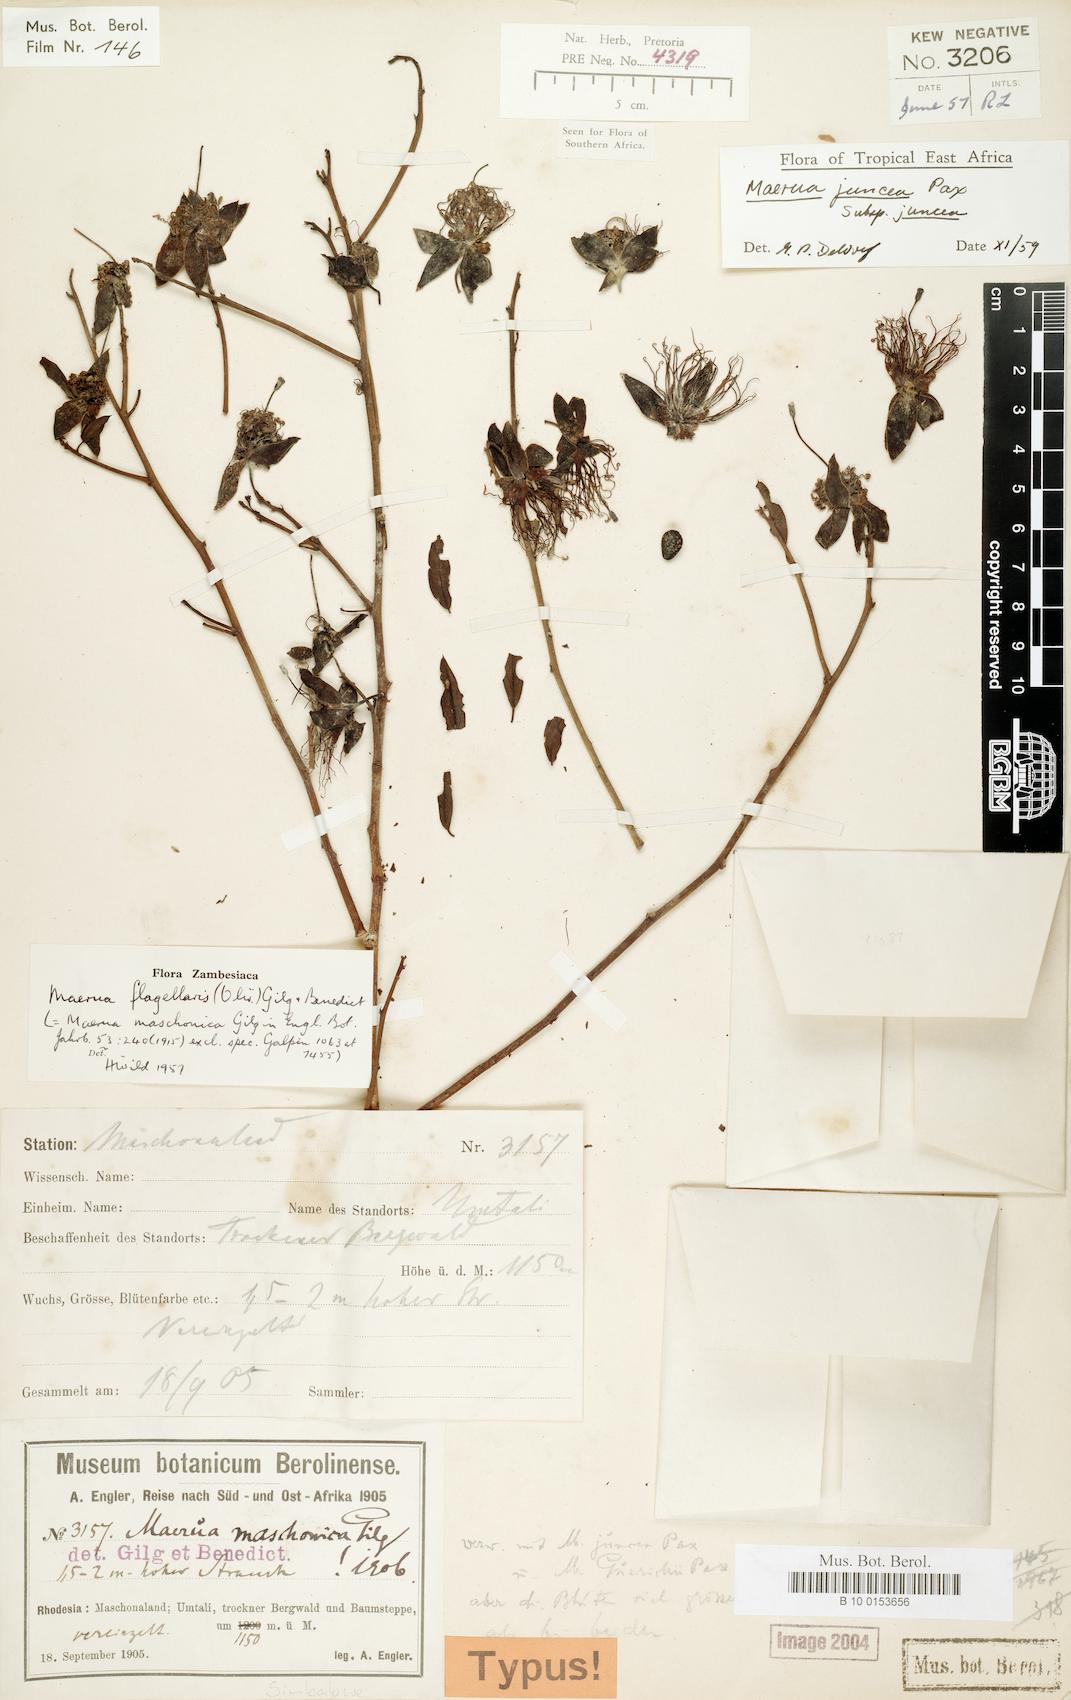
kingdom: Plantae
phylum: Tracheophyta
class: Magnoliopsida
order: Brassicales
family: Capparaceae
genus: Maerua
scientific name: Maerua juncea
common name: Rough-skinned bush cherry
